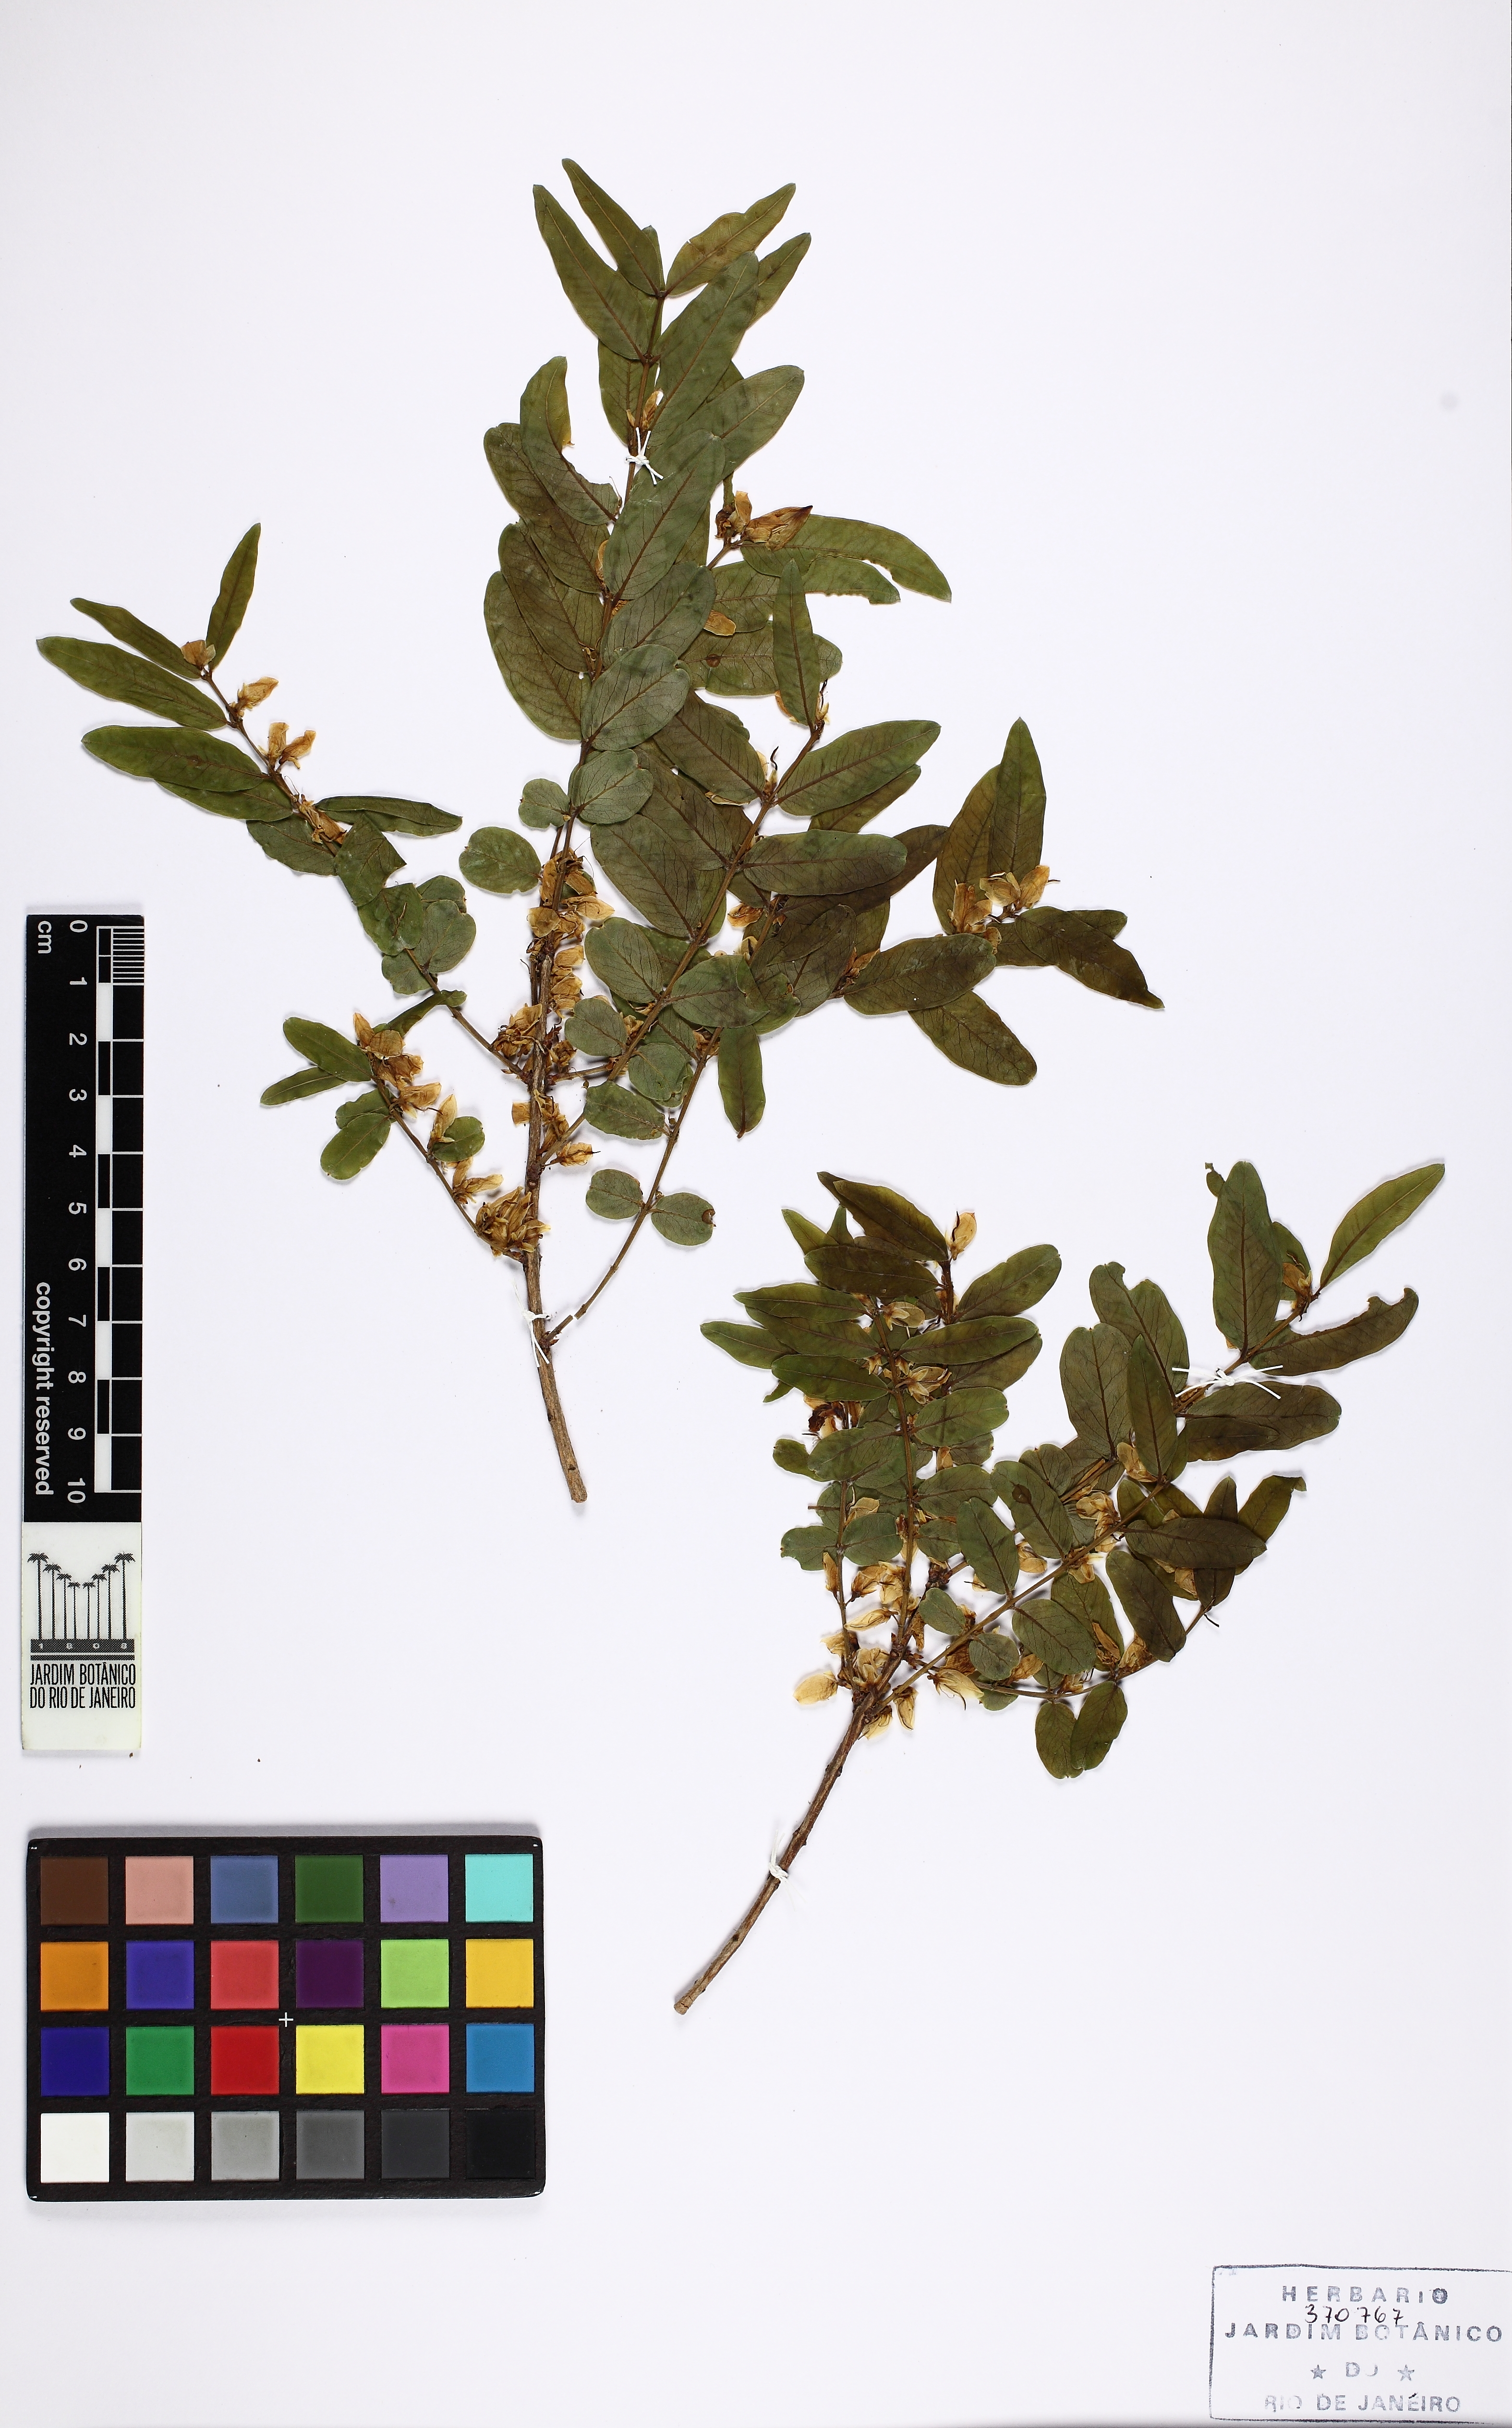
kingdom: Plantae
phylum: Tracheophyta
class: Magnoliopsida
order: Myrtales
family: Vochysiaceae
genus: Callisthene
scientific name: Callisthene
